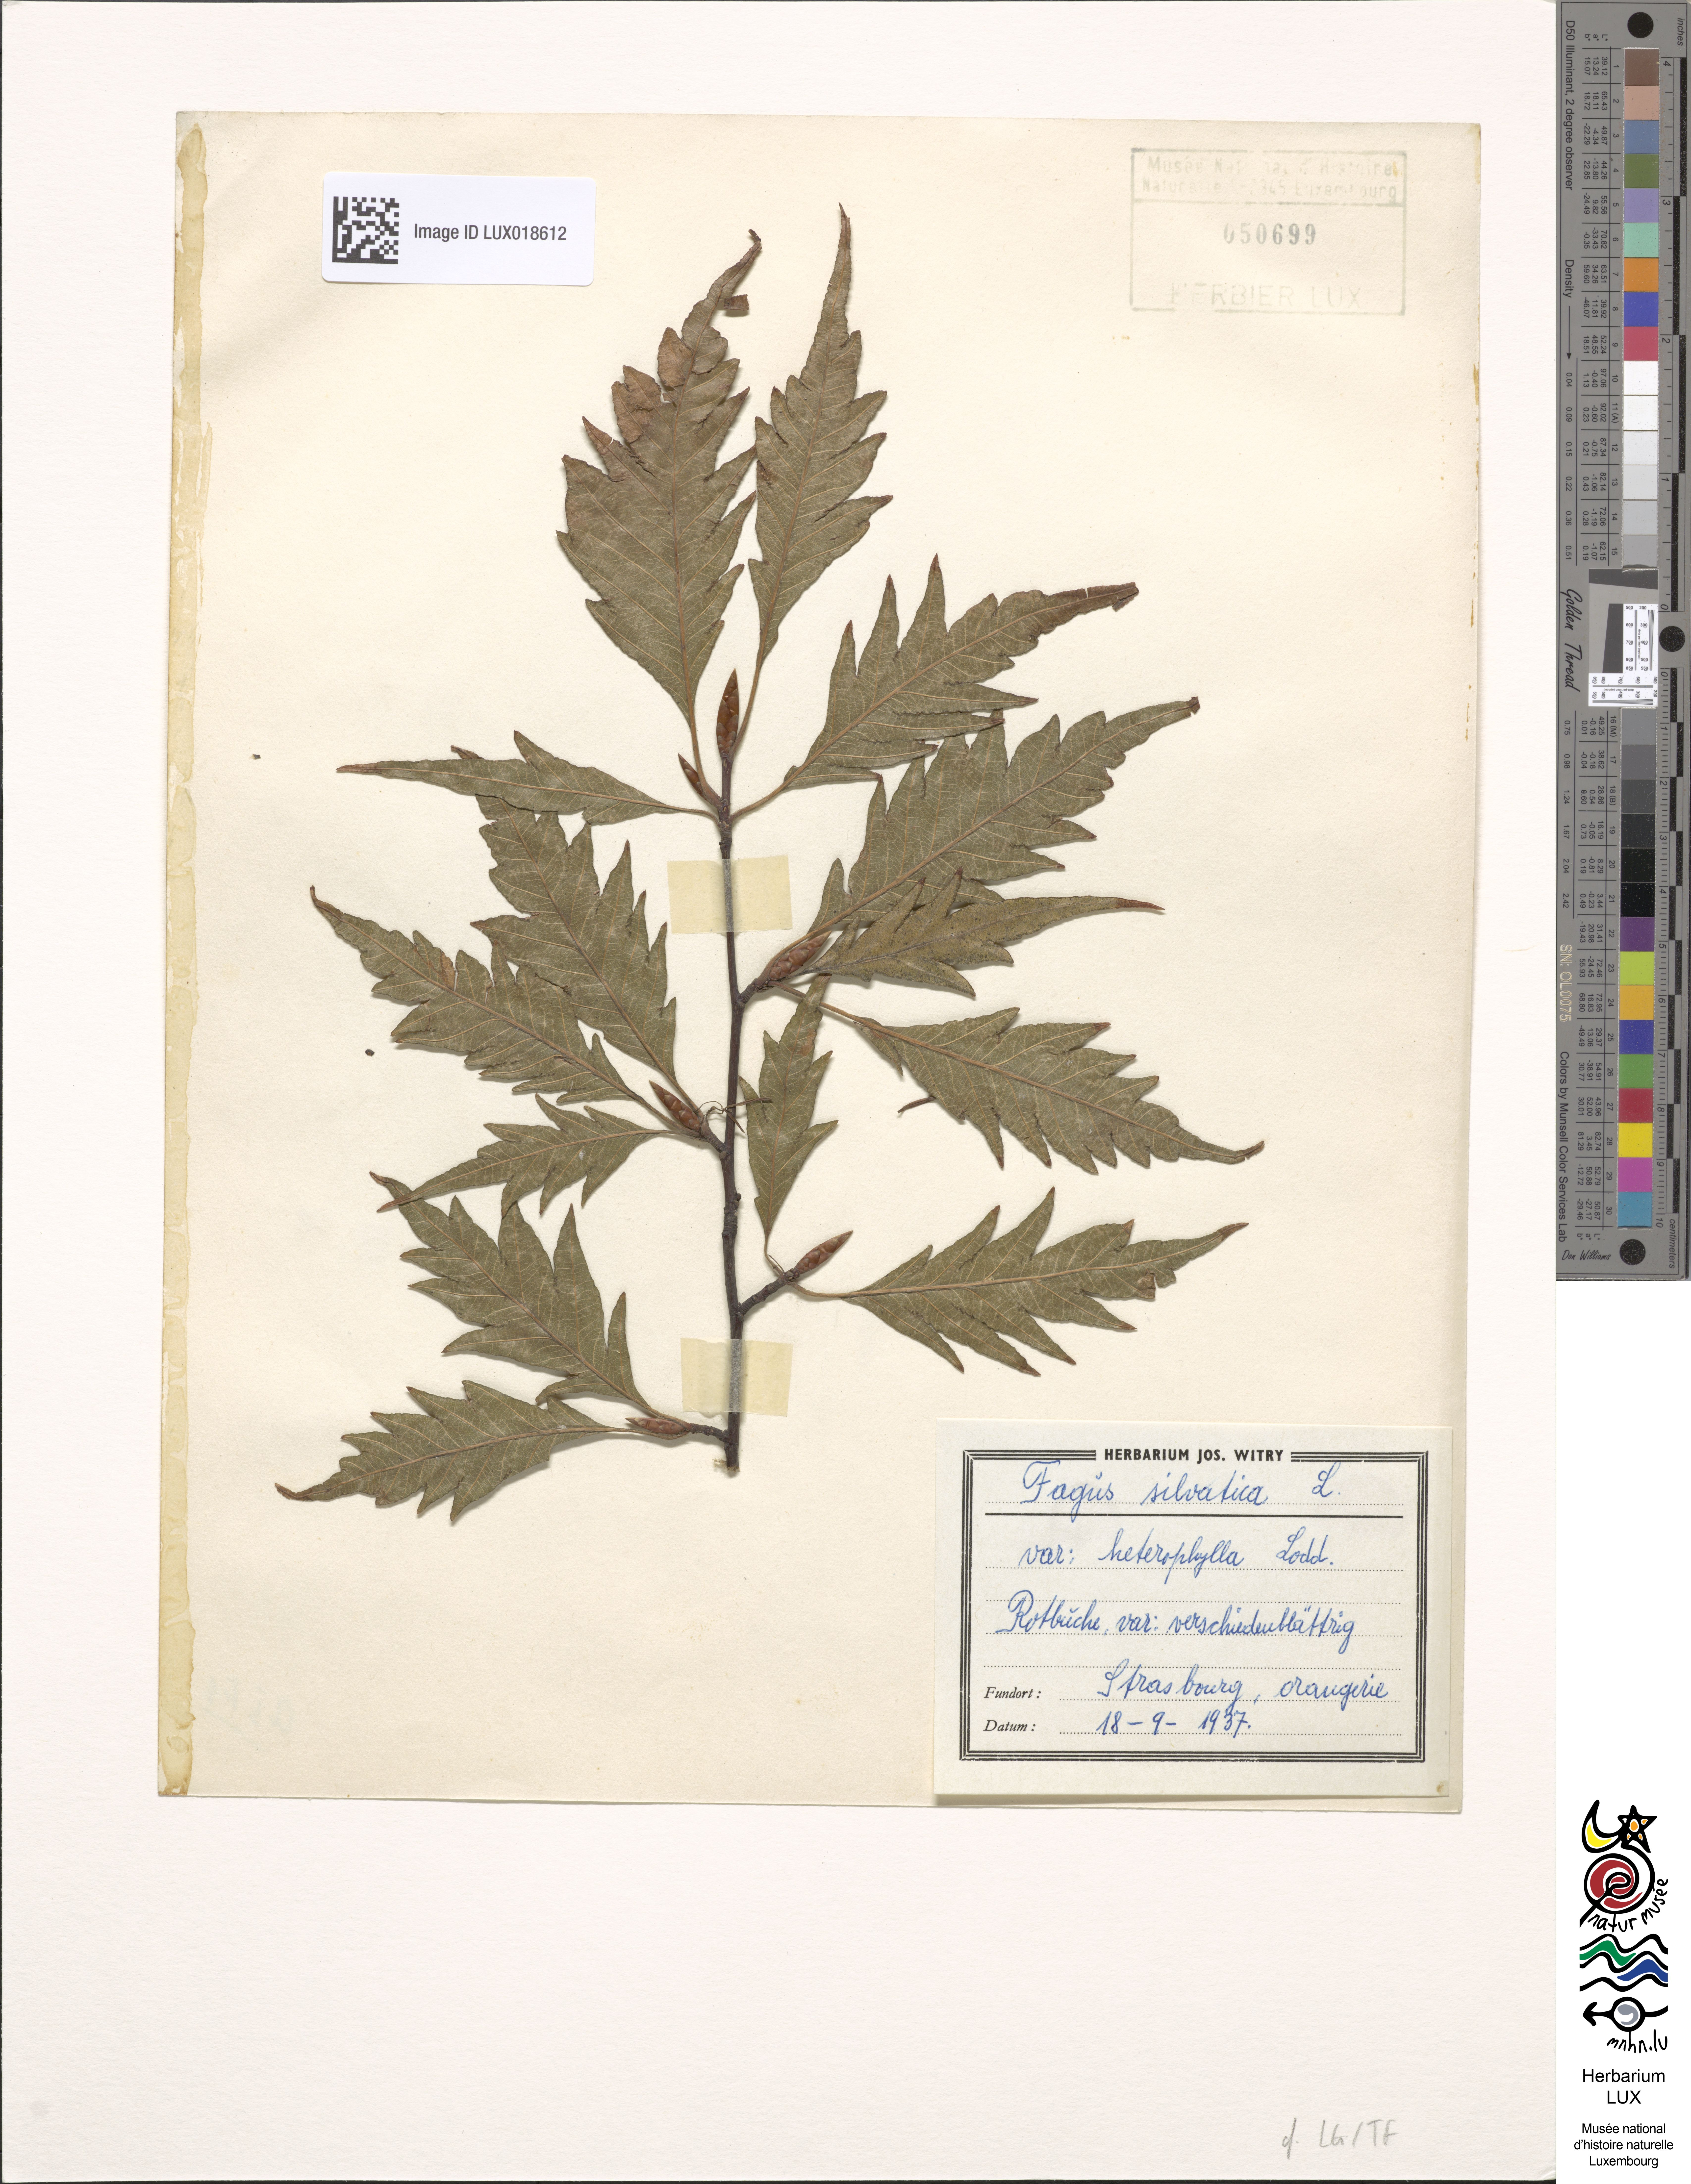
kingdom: Plantae
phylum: Tracheophyta
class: Magnoliopsida
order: Fagales
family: Fagaceae
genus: Fagus
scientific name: Fagus sylvatica
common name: Beech
